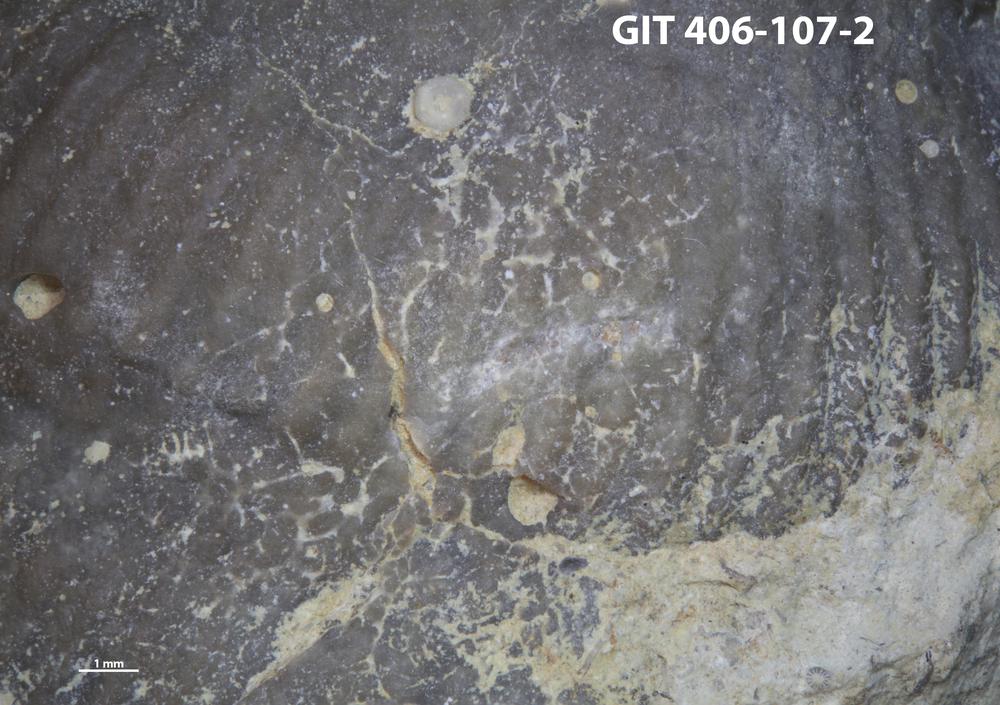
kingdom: Animalia
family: Dendrinidae
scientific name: Dendrinidae
